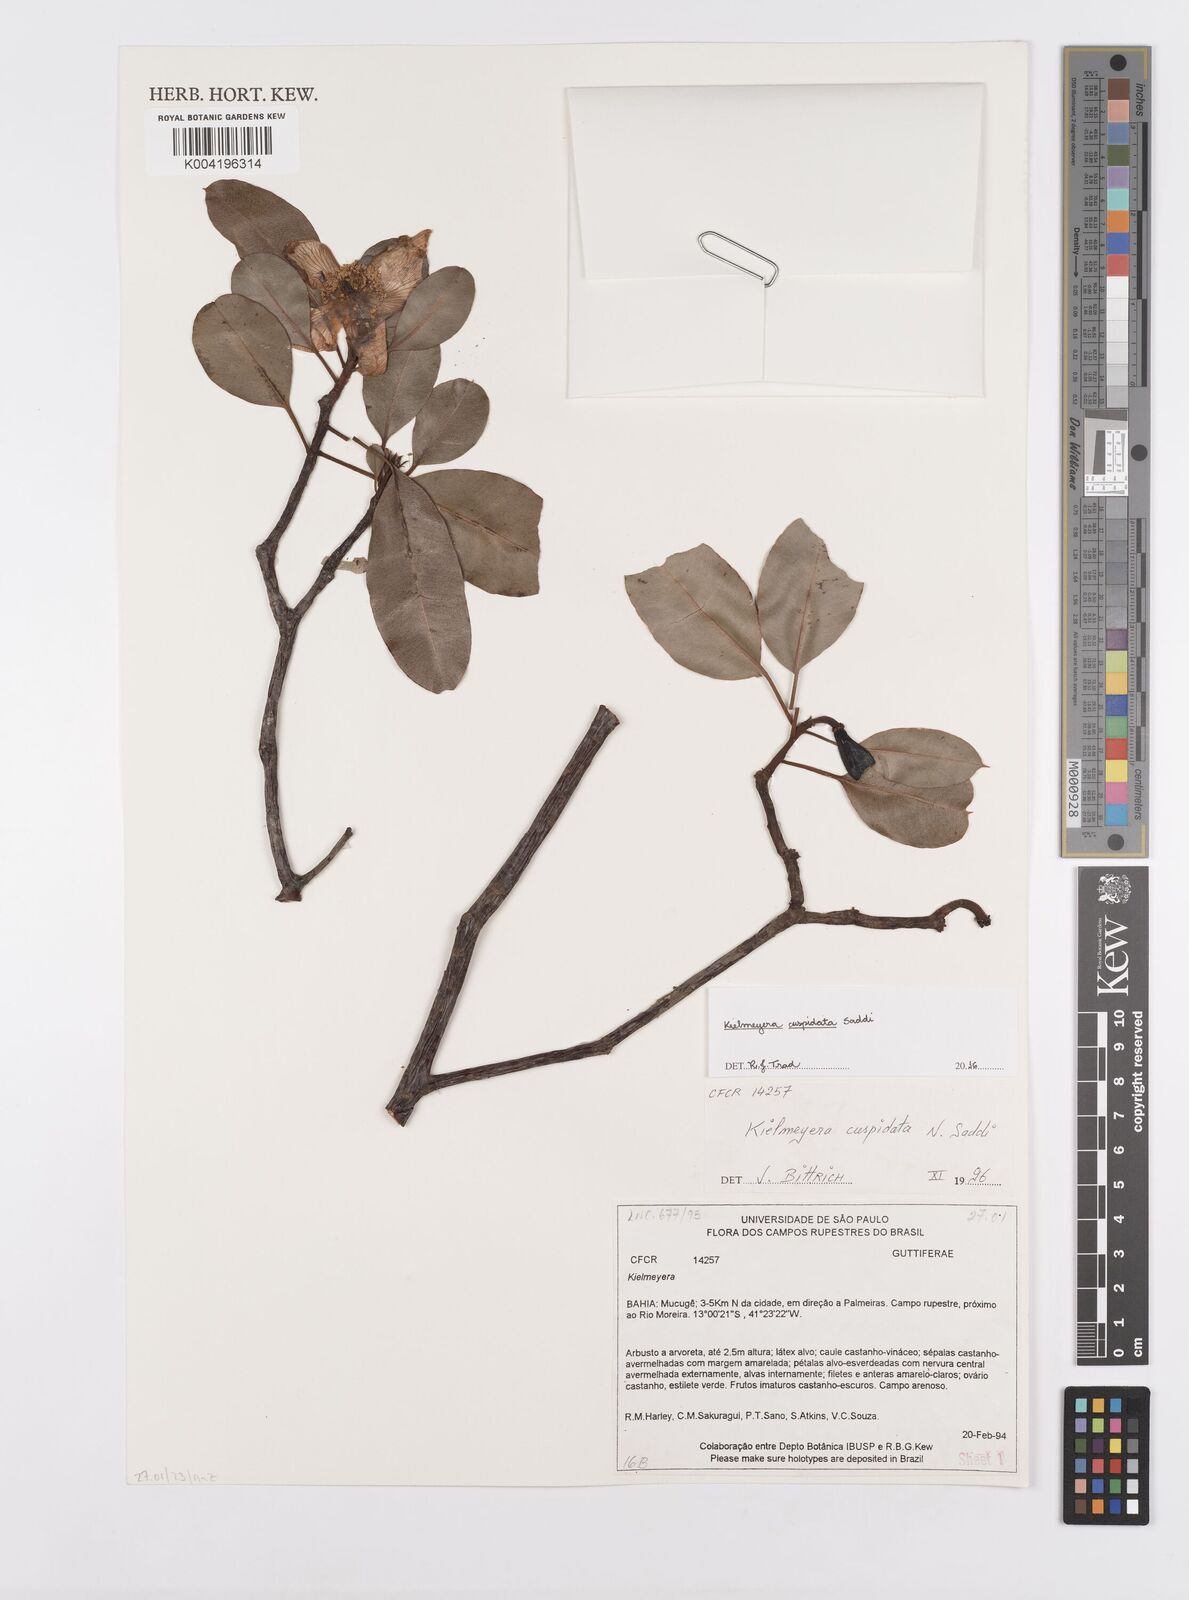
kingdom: Plantae
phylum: Tracheophyta
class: Magnoliopsida
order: Malpighiales
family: Calophyllaceae
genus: Kielmeyera
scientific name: Kielmeyera cuspidata
